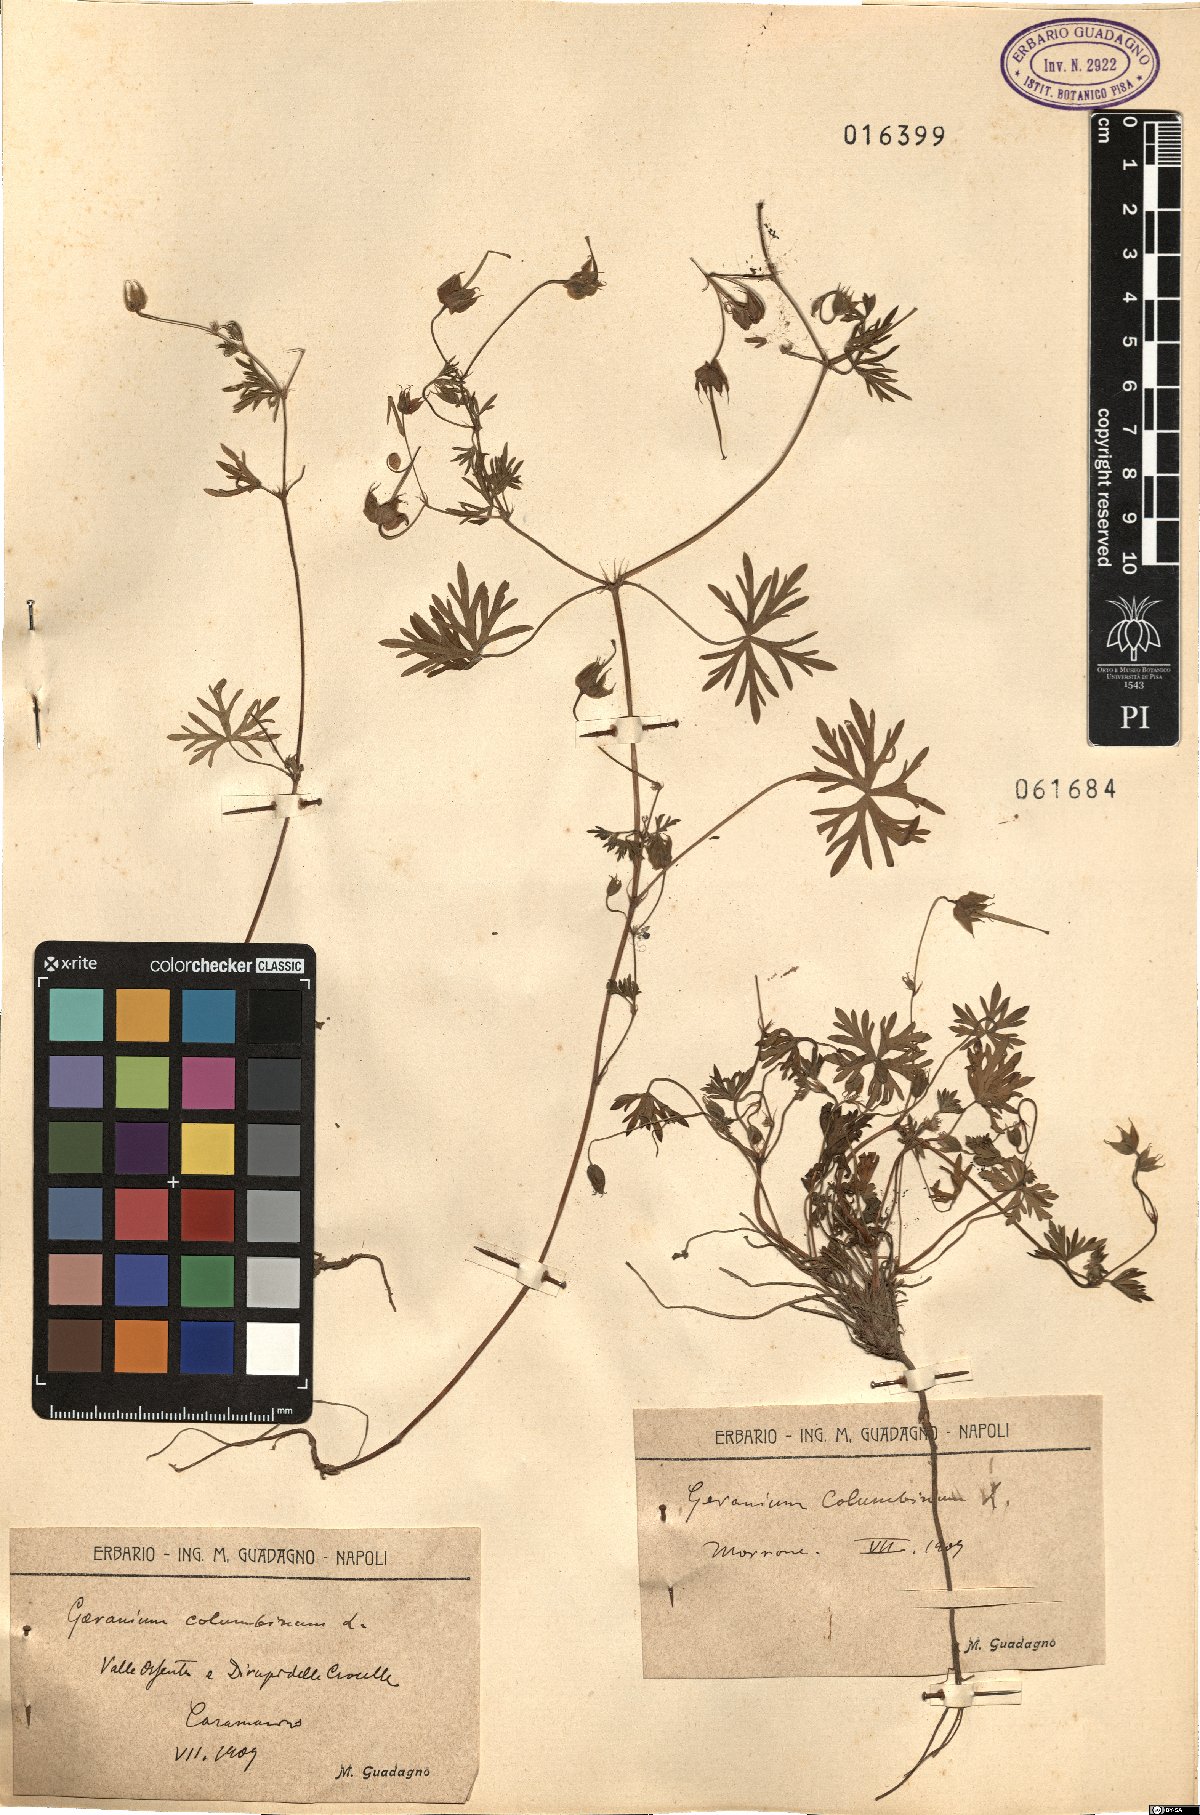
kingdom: Plantae
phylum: Tracheophyta
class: Magnoliopsida
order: Geraniales
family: Geraniaceae
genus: Geranium
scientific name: Geranium columbinum
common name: Long-stalked crane's-bill
